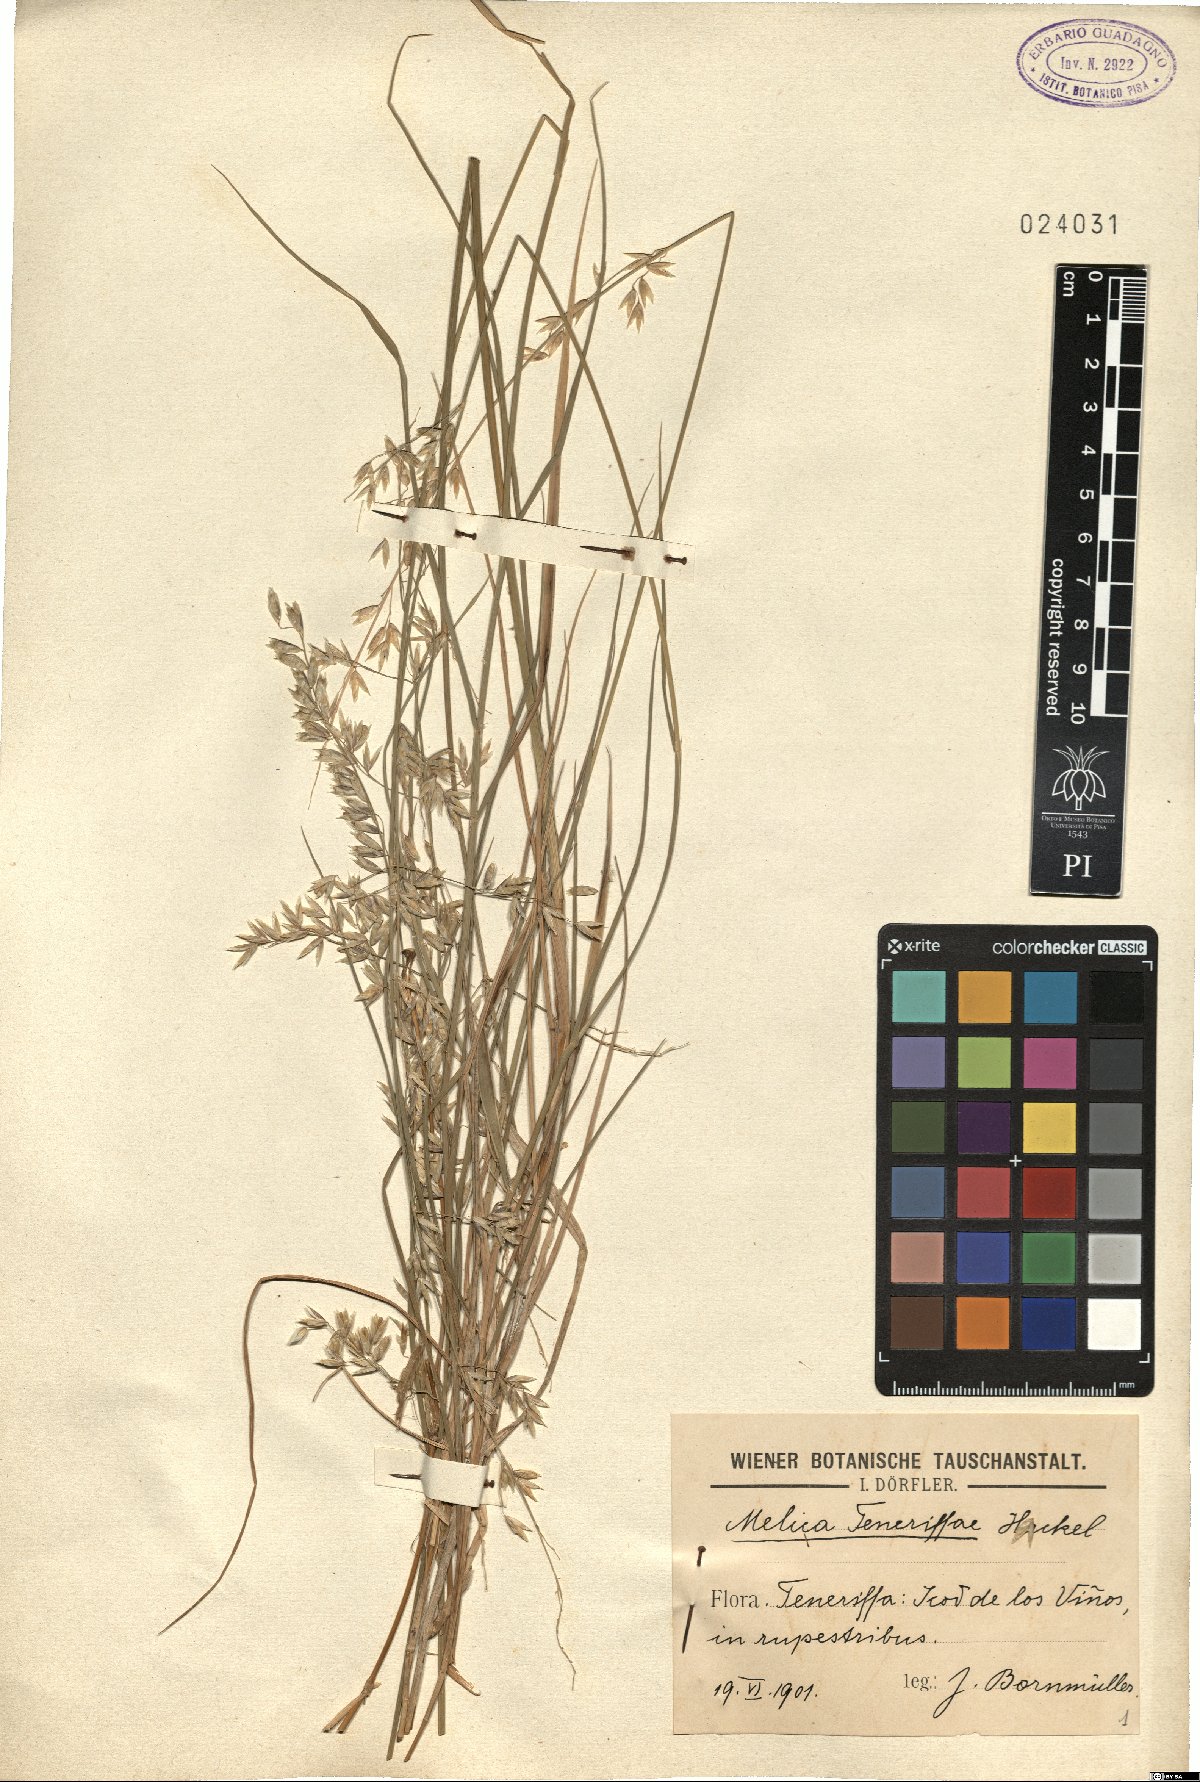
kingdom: Plantae
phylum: Tracheophyta
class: Liliopsida
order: Poales
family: Poaceae
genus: Melica
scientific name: Melica teneriffae
